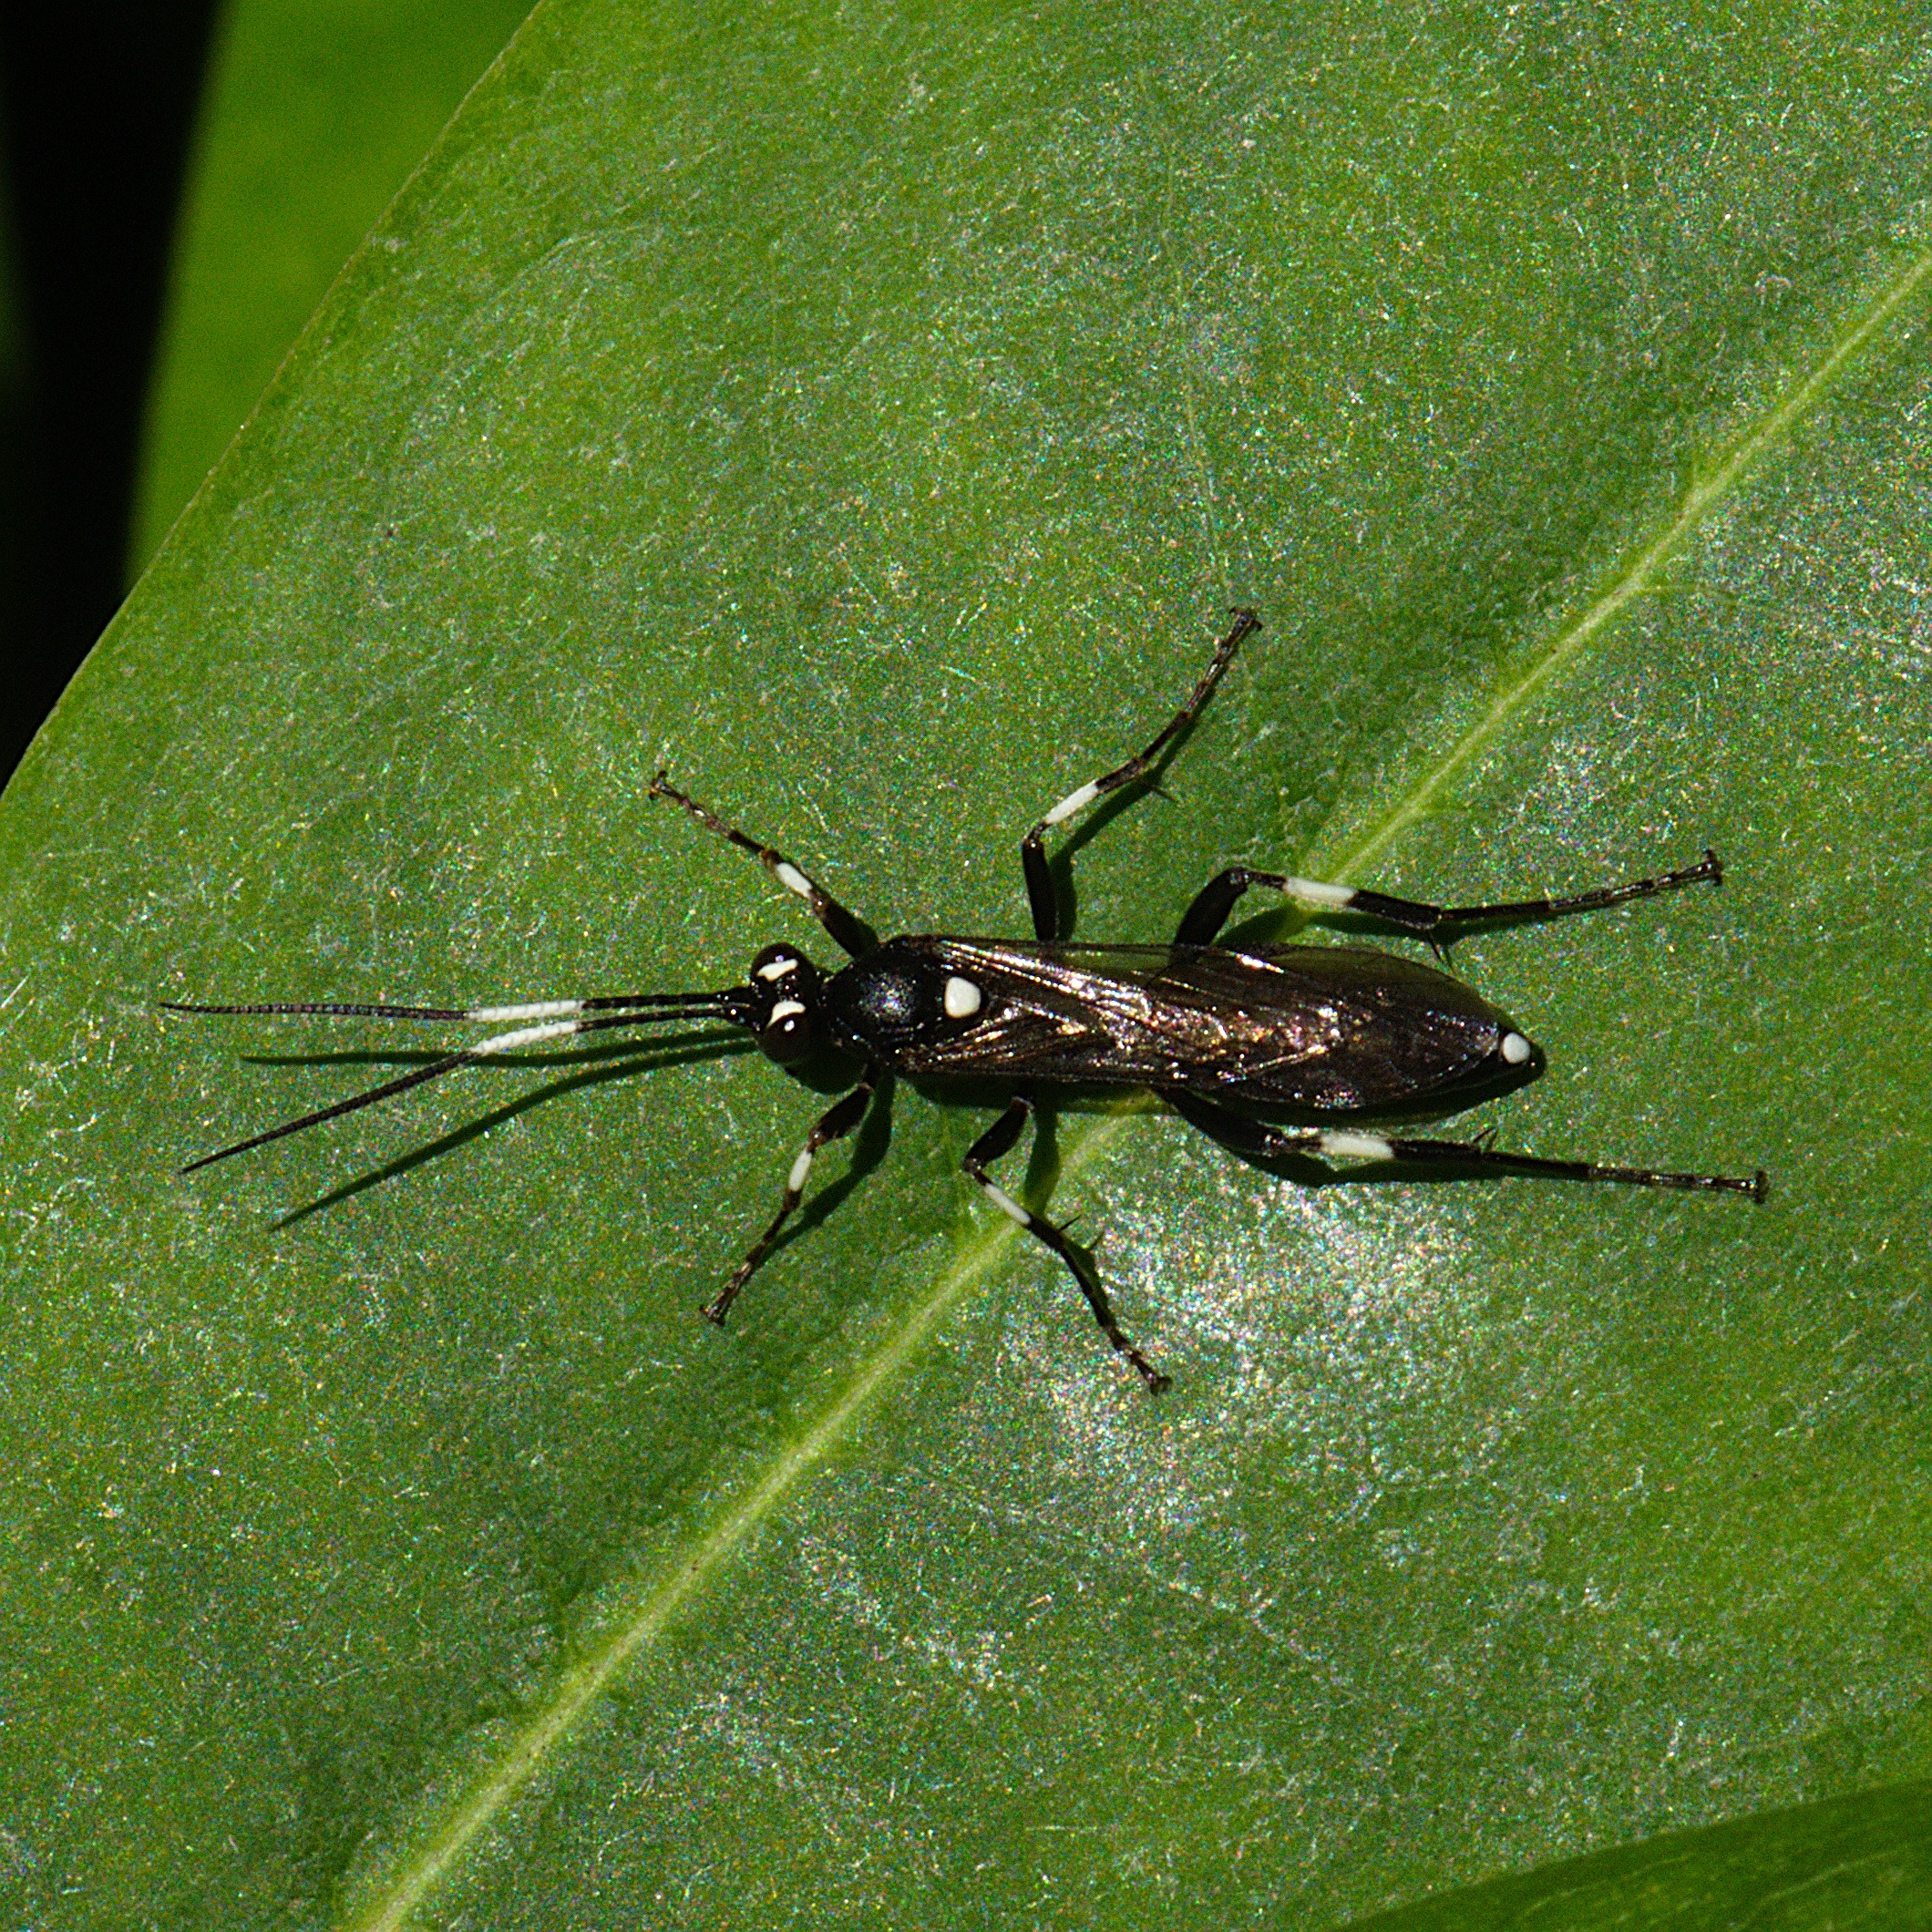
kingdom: Animalia
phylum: Arthropoda
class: Insecta
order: Hymenoptera
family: Ichneumonidae
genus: Achaius
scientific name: Achaius oratorius
